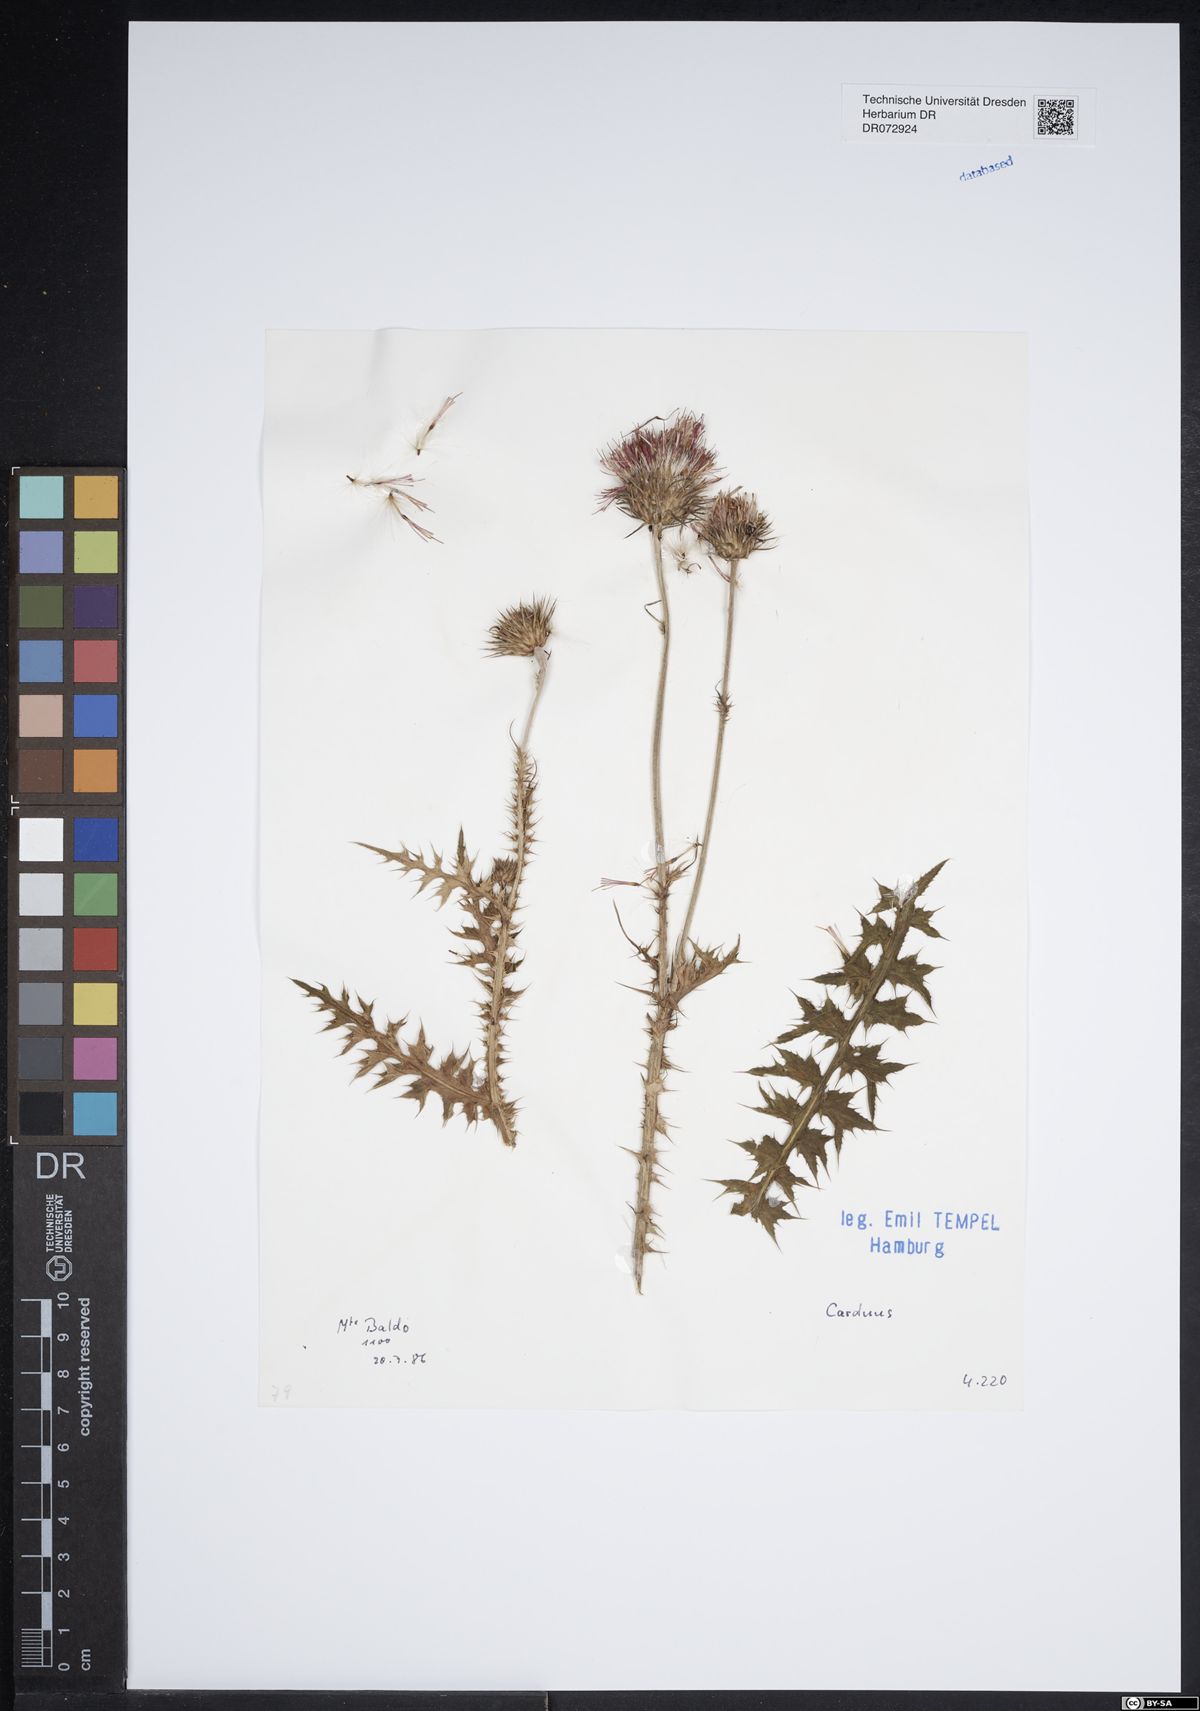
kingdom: Plantae
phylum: Tracheophyta
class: Magnoliopsida
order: Asterales
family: Asteraceae
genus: Carduus
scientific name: Carduus
